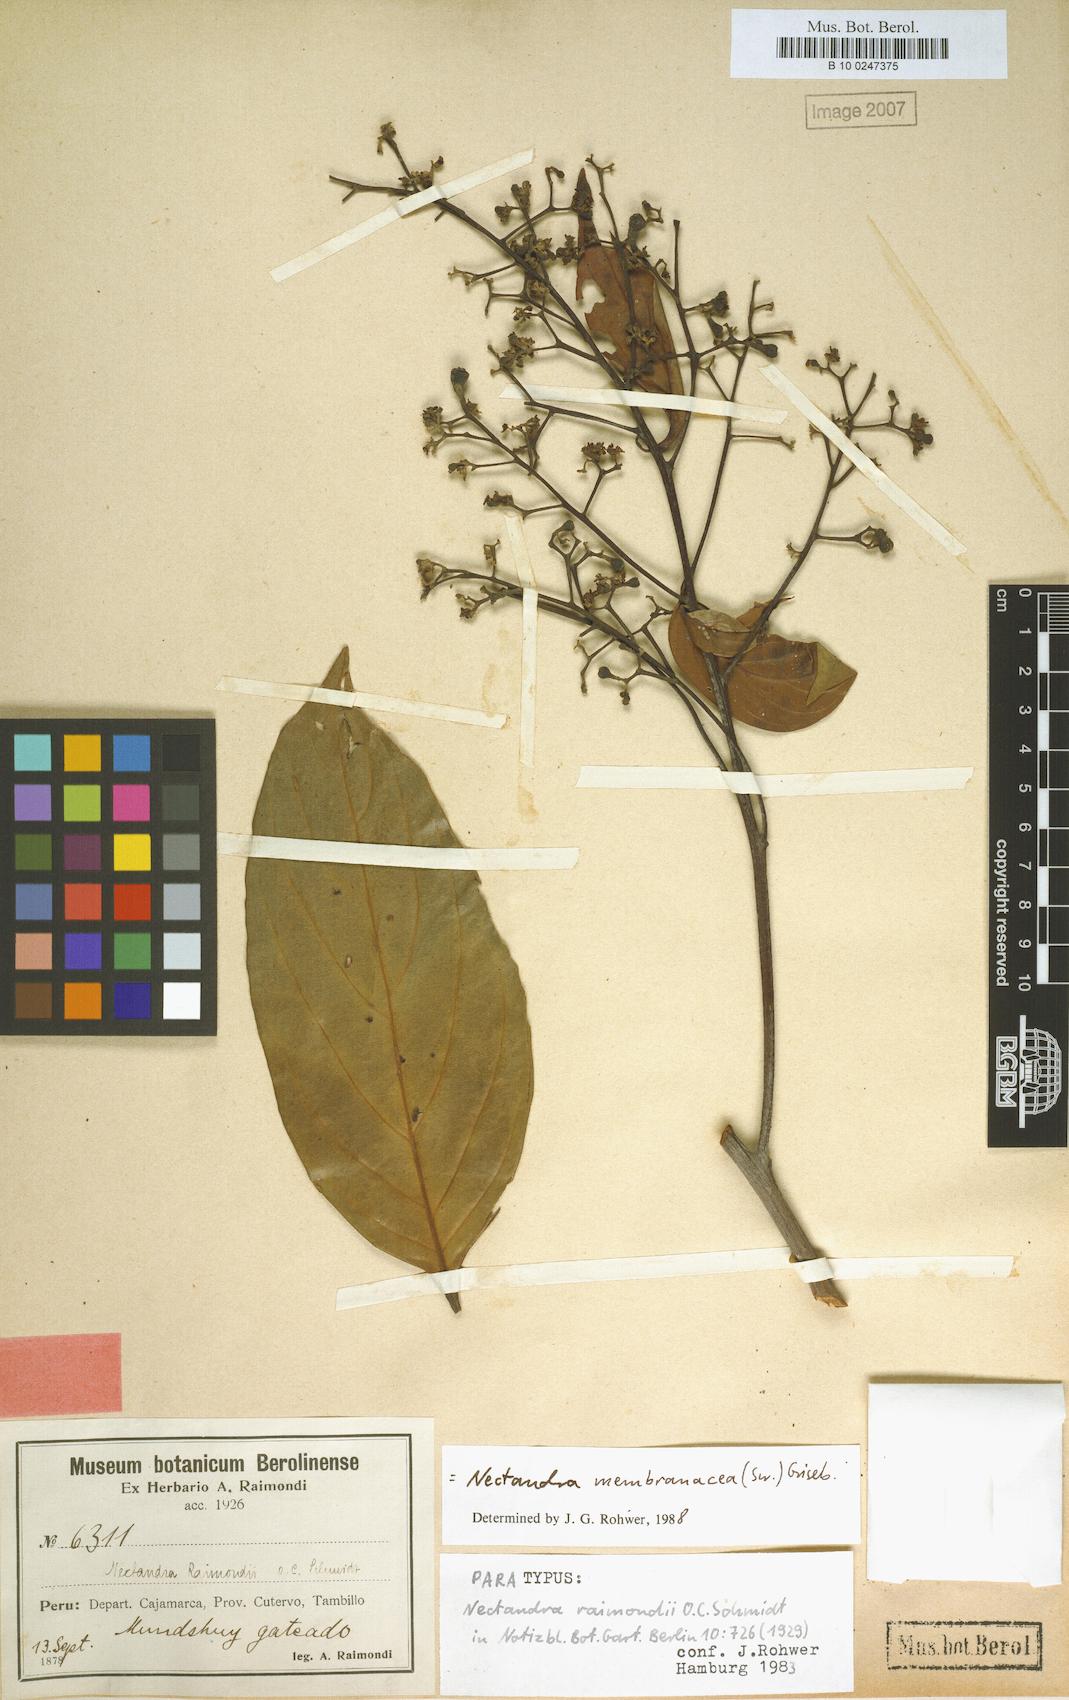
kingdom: Plantae
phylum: Tracheophyta
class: Magnoliopsida
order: Laurales
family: Lauraceae
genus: Nectandra
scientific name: Nectandra membranacea
